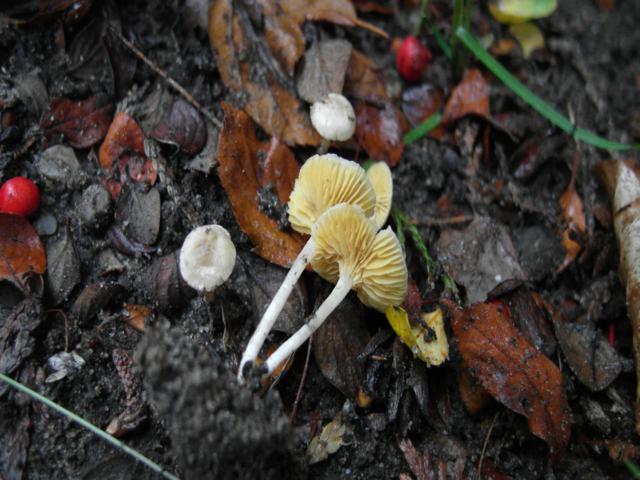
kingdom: Fungi
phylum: Basidiomycota
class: Agaricomycetes
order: Agaricales
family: Tubariaceae
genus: Tubaria
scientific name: Tubaria dispersa
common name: tjørne-fnughat
